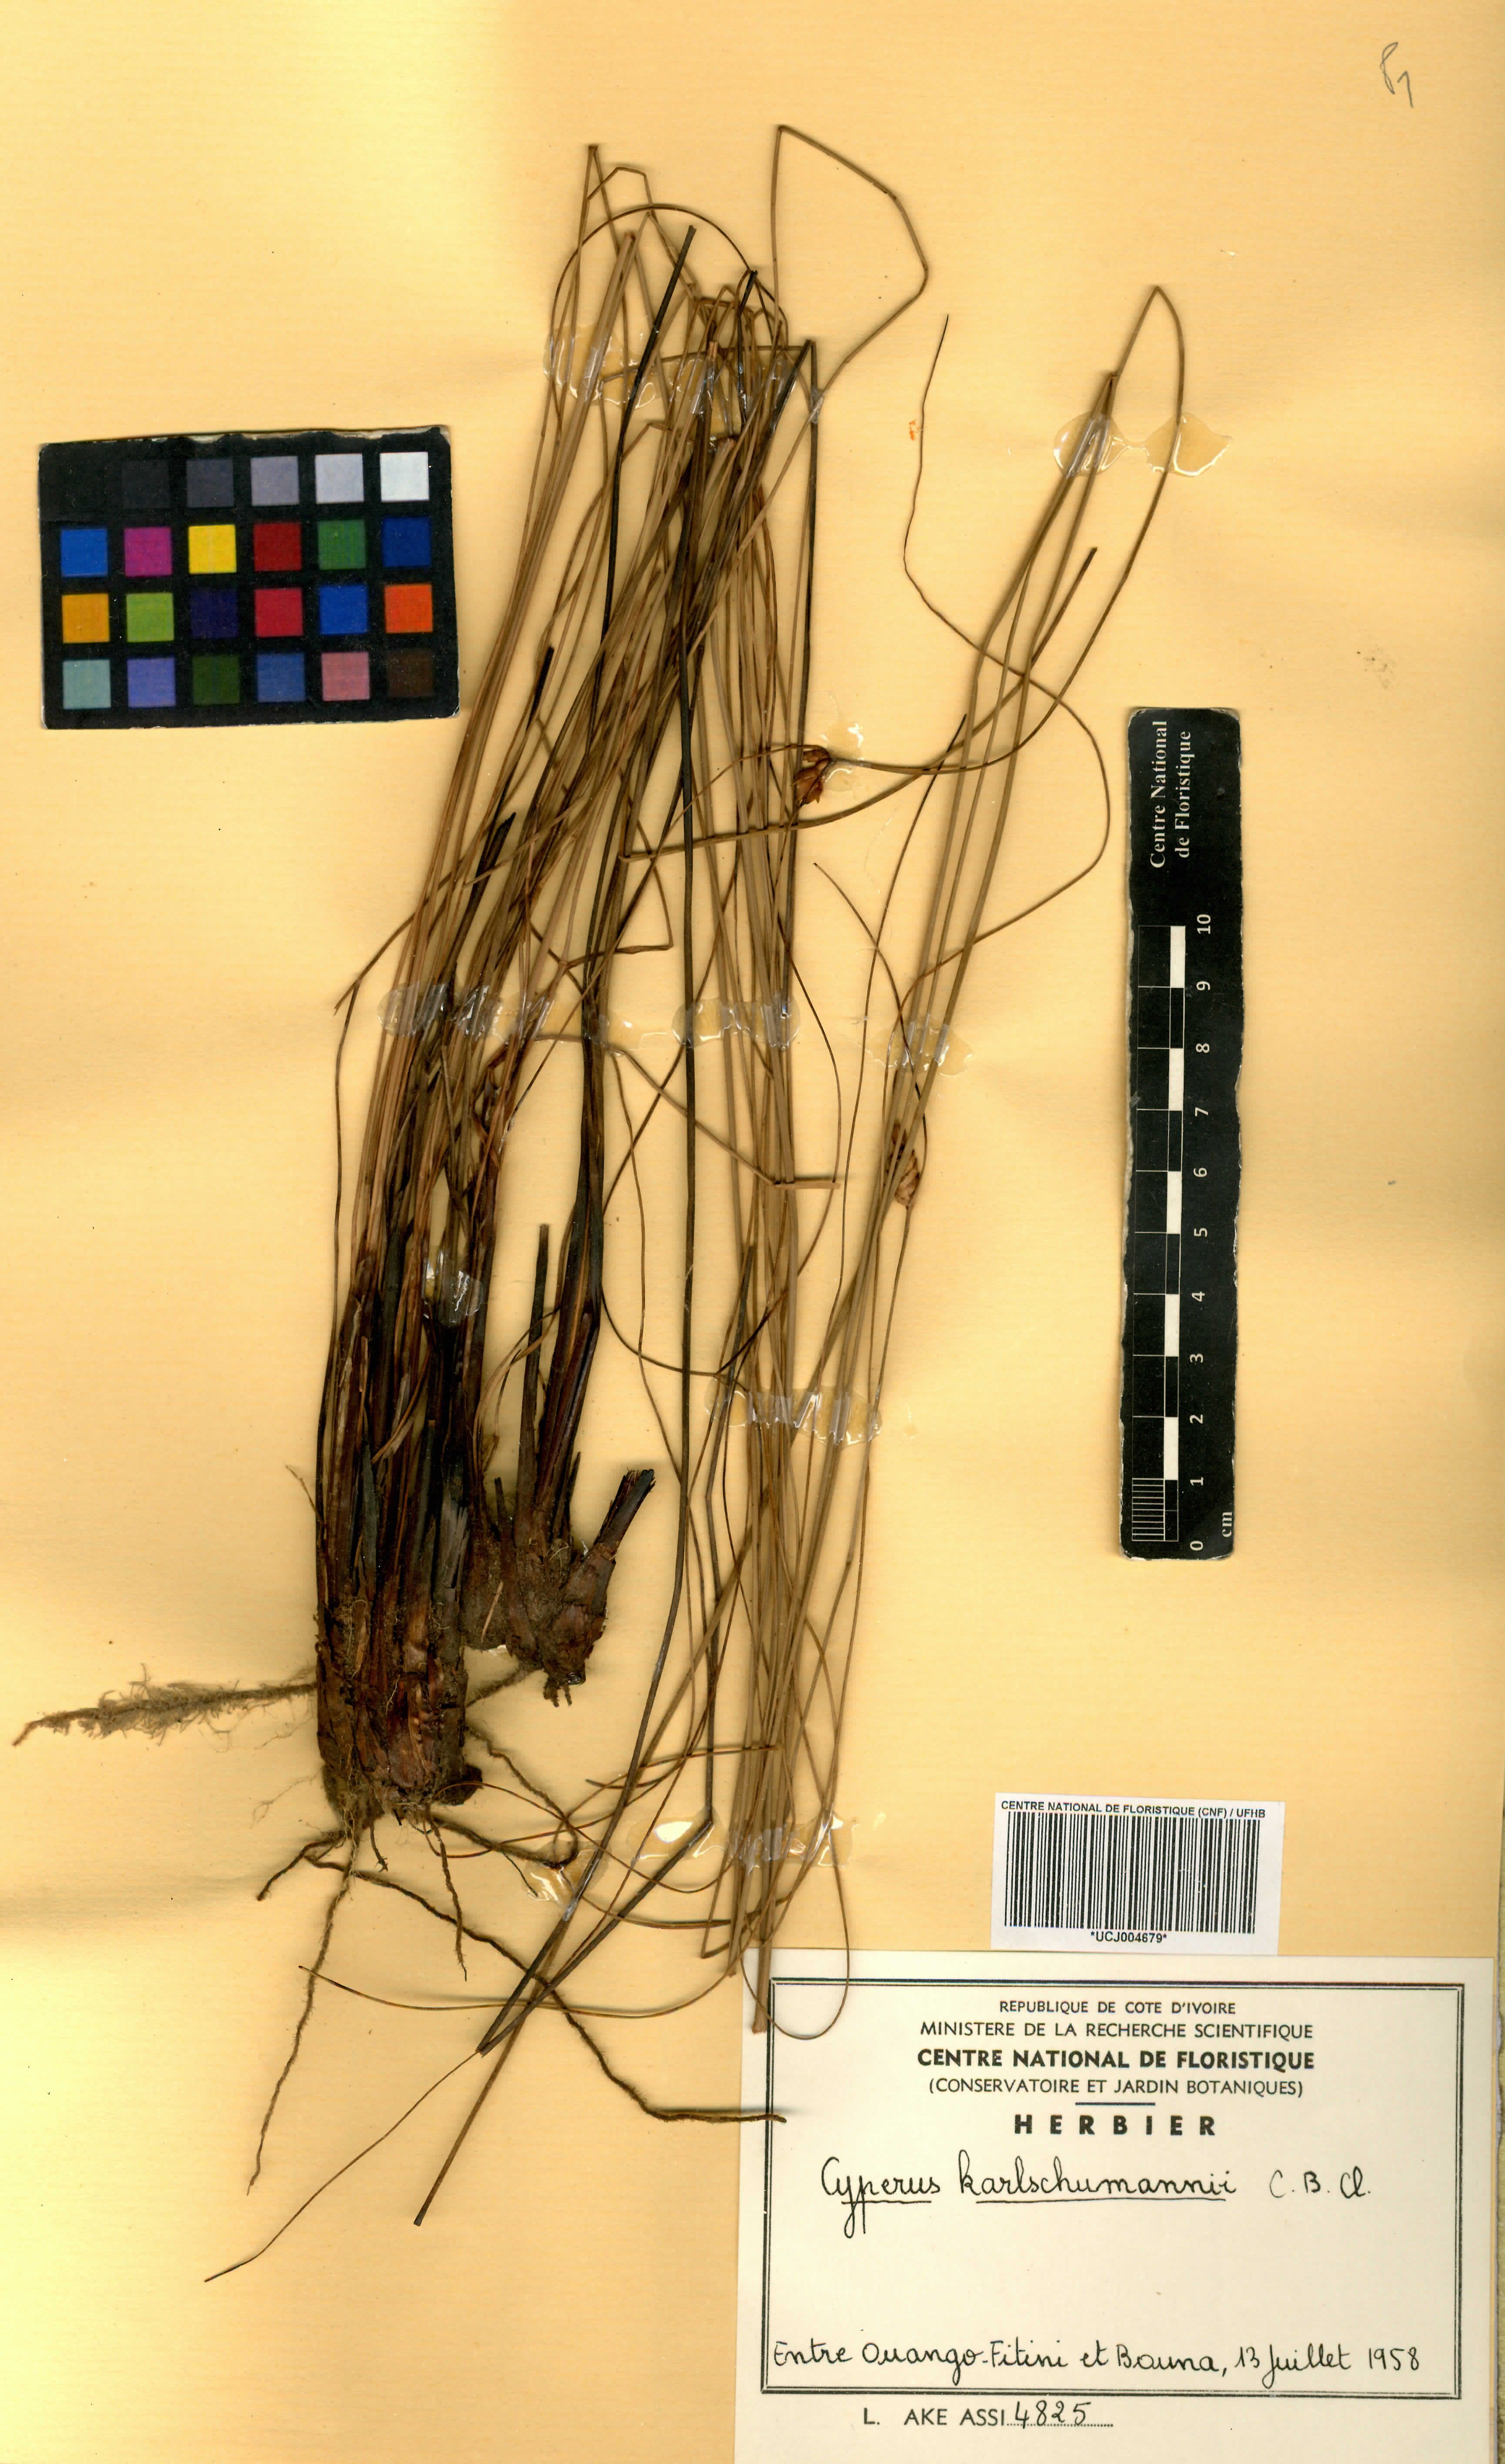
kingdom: Plantae
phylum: Tracheophyta
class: Liliopsida
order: Poales
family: Cyperaceae
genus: Cyperus
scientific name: Cyperus karlschumannii
